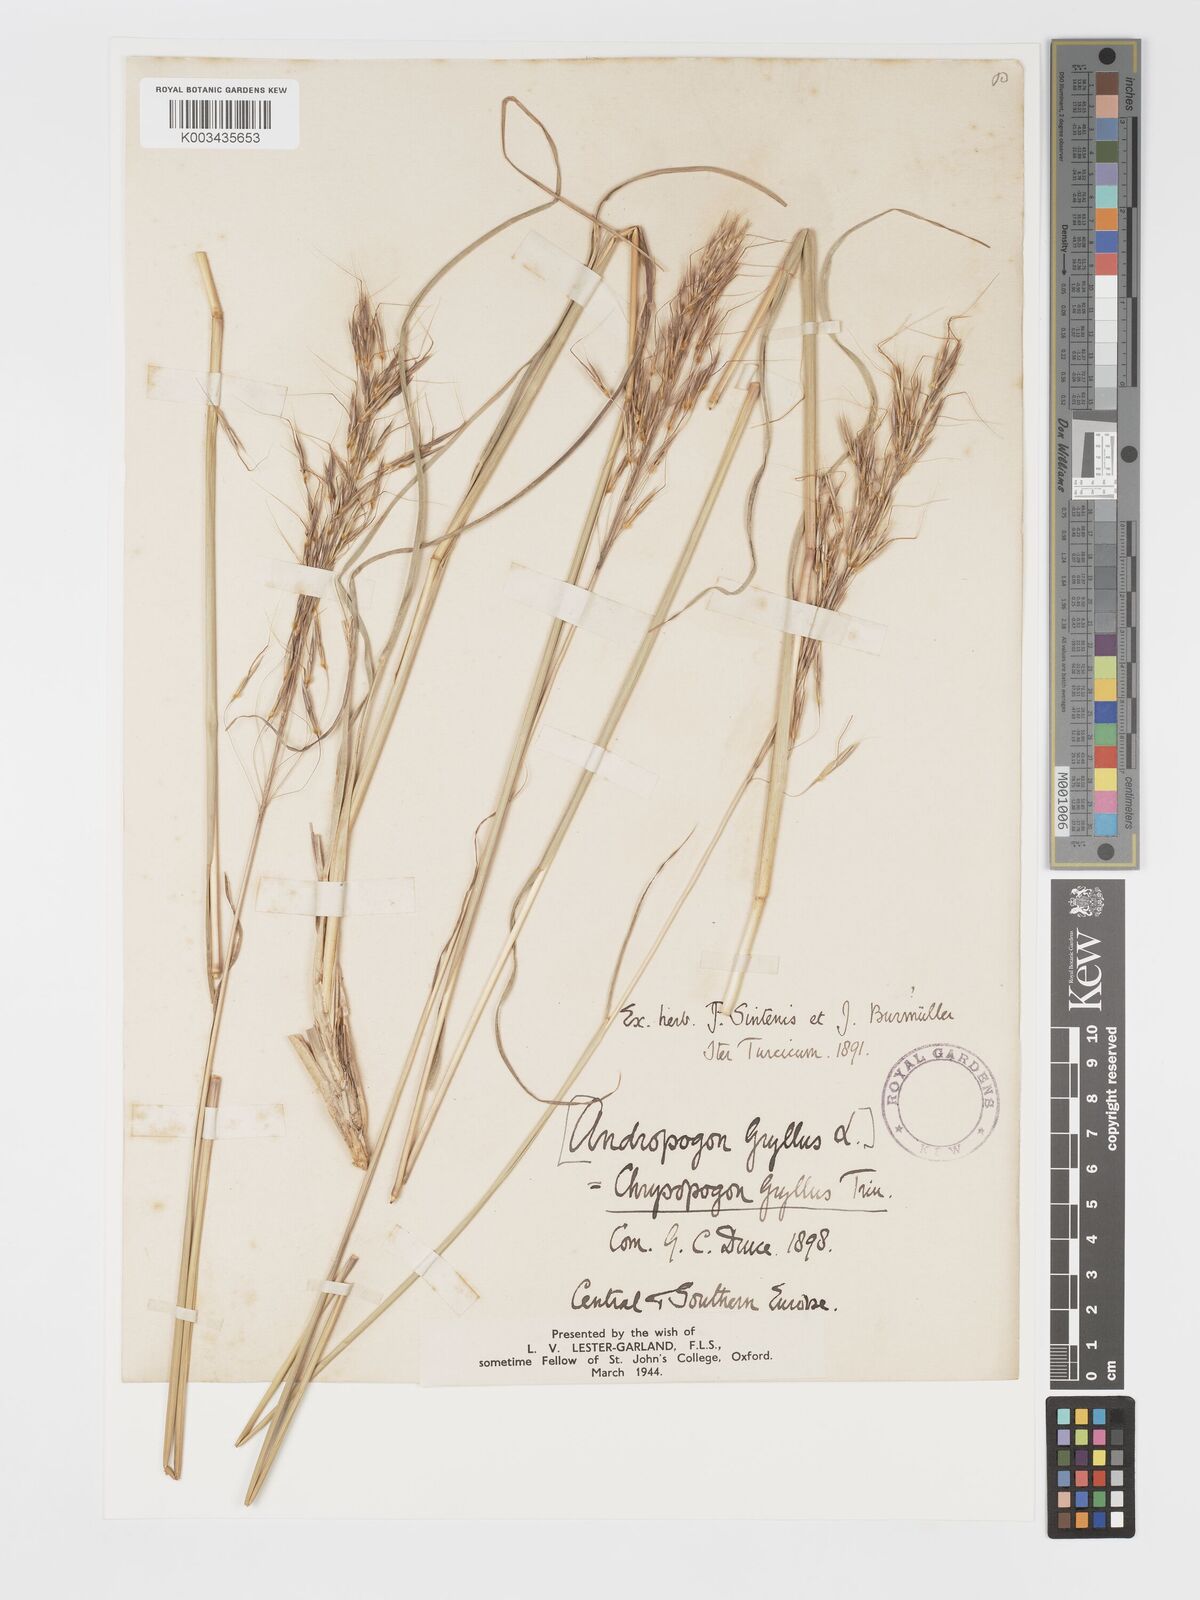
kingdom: Plantae
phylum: Tracheophyta
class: Liliopsida
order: Poales
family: Poaceae
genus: Chrysopogon
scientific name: Chrysopogon gryllus
